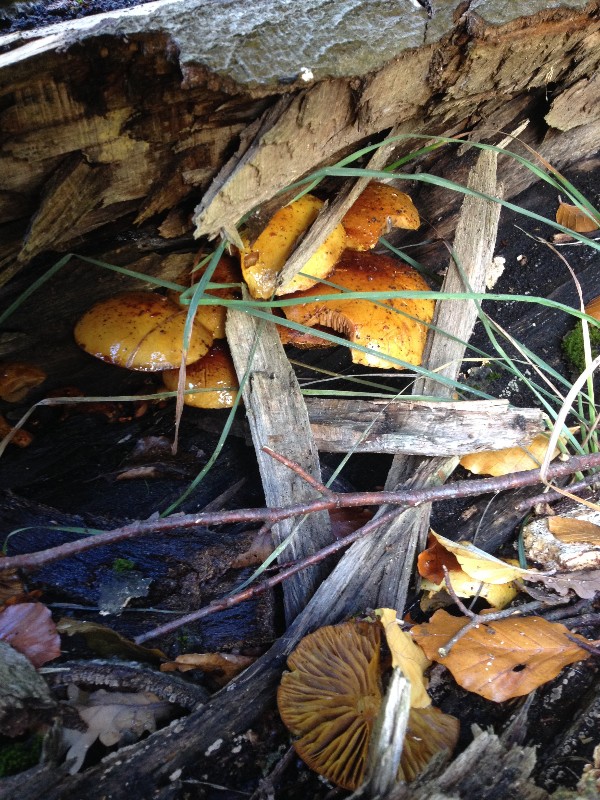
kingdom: Fungi
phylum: Basidiomycota
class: Agaricomycetes
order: Agaricales
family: Strophariaceae
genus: Pholiota
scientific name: Pholiota adiposa
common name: højtsiddende skælhat
